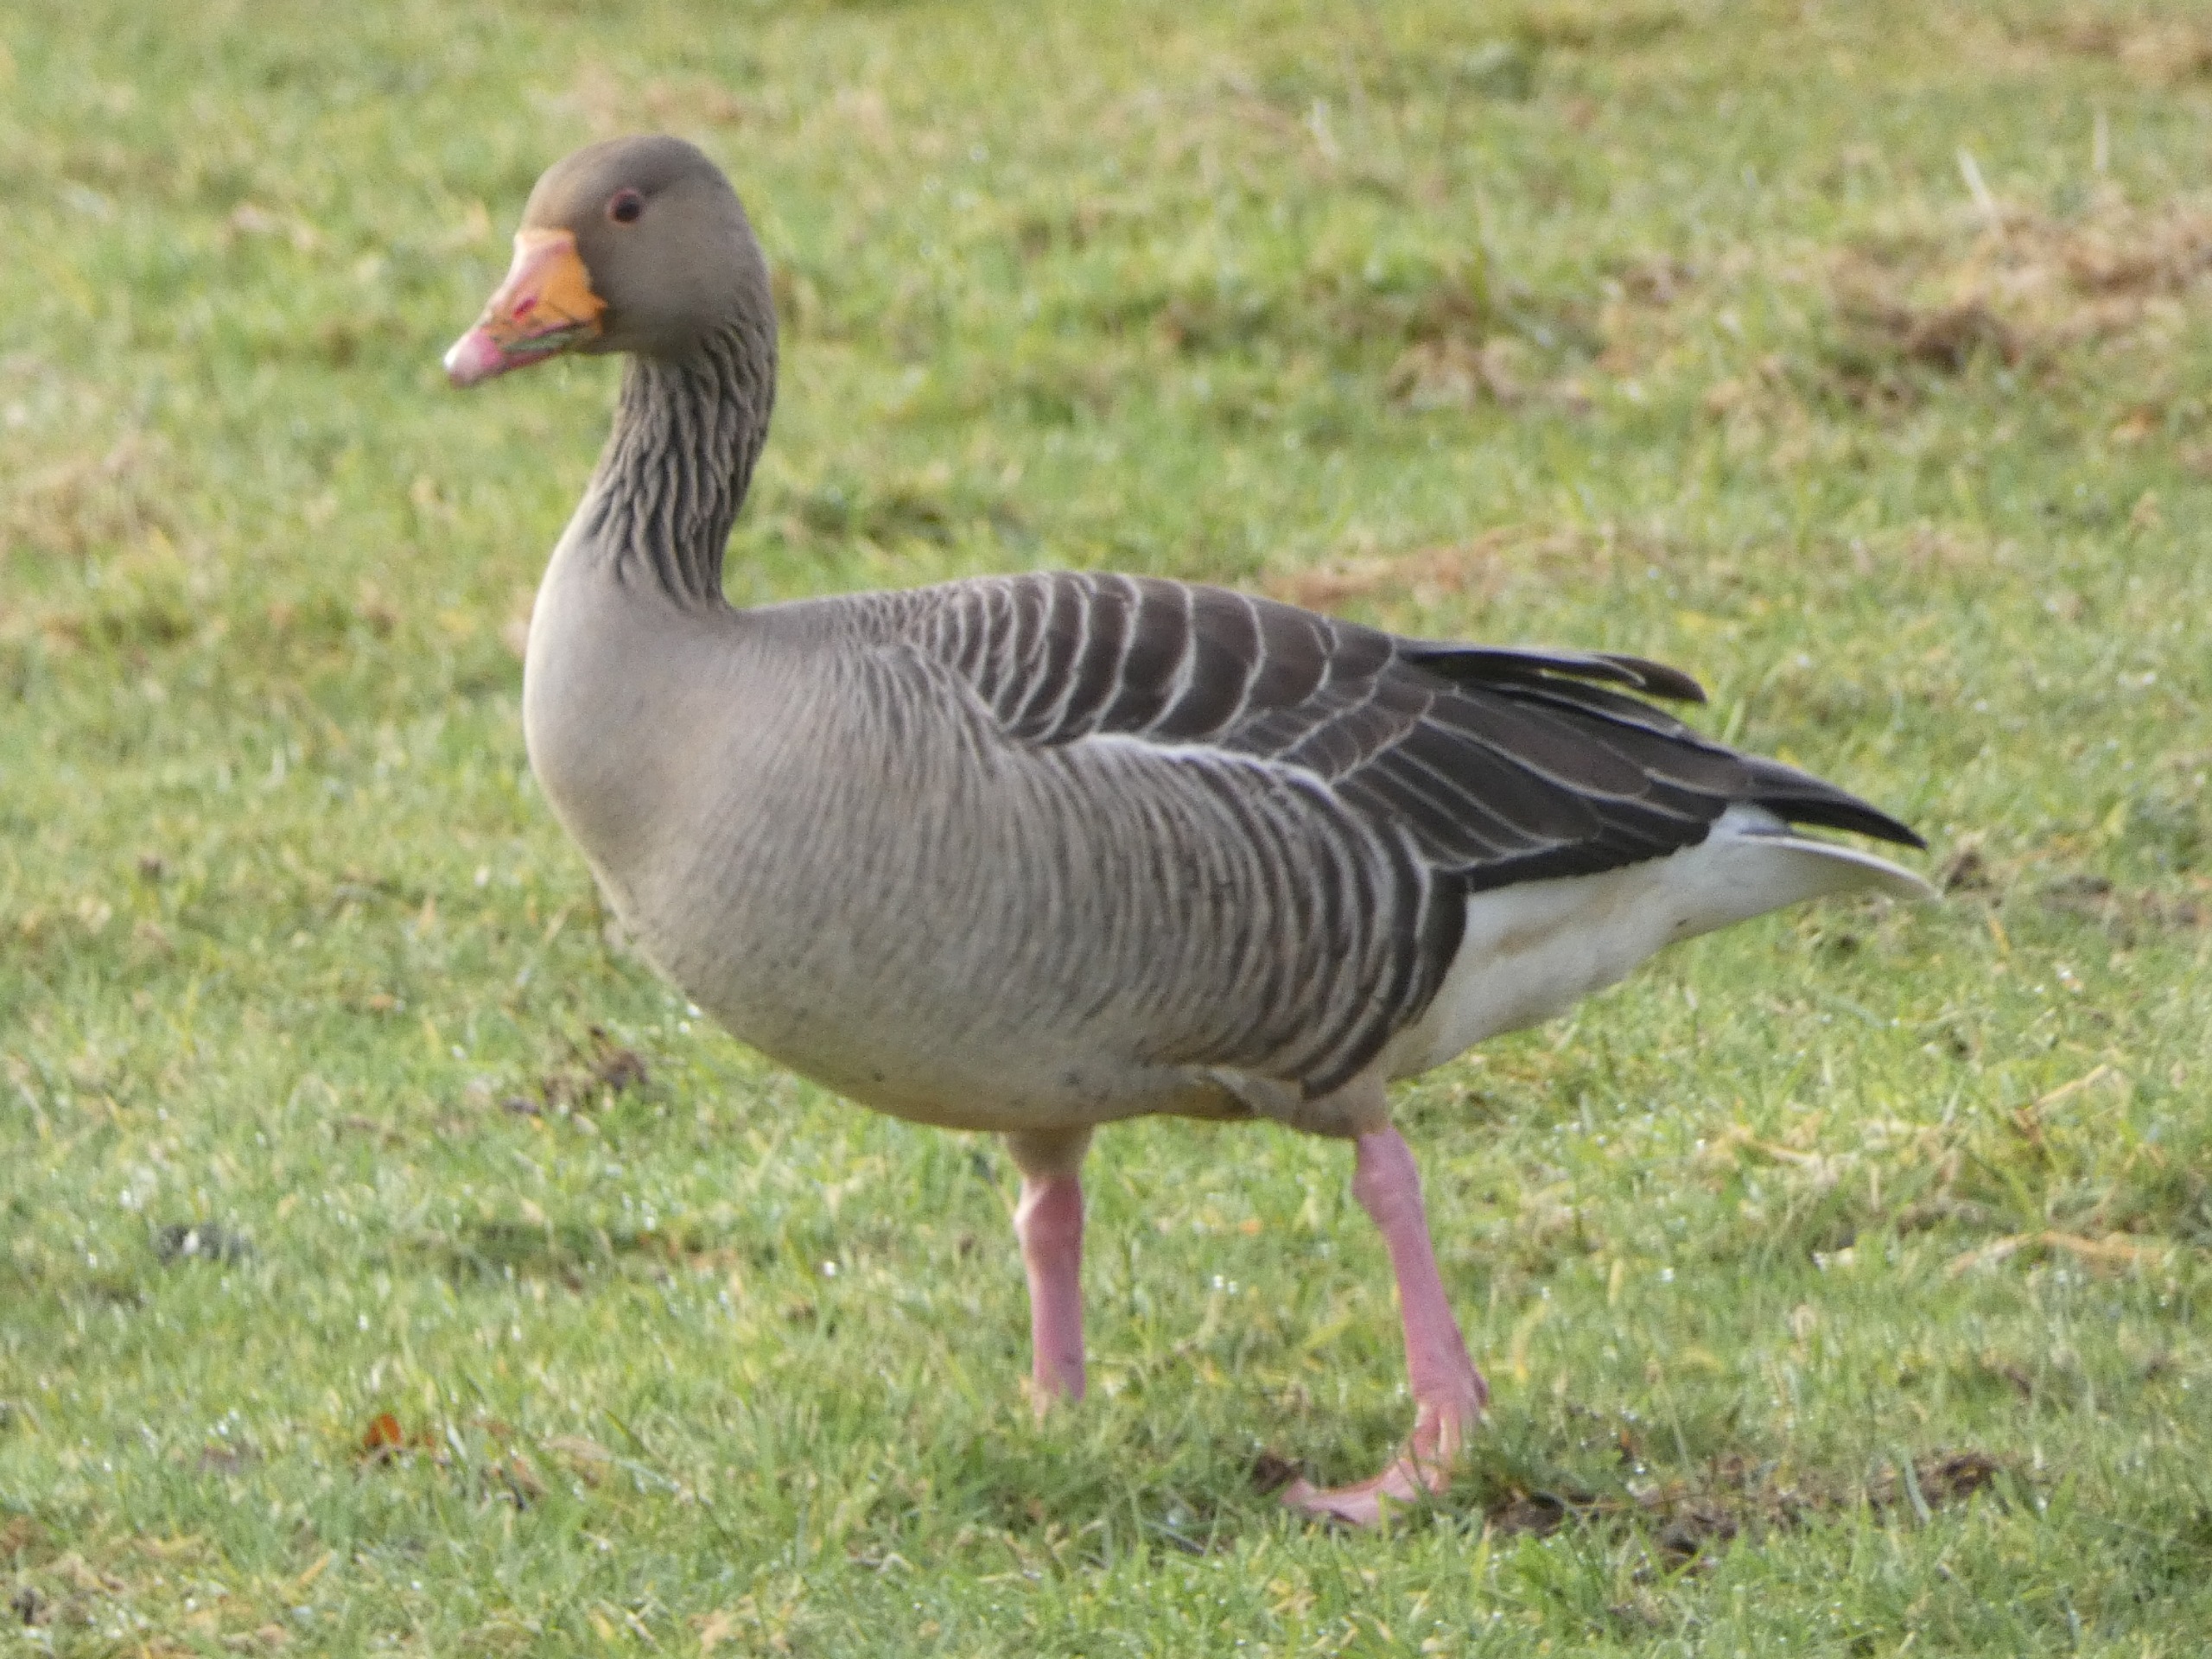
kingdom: Animalia
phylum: Chordata
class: Aves
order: Anseriformes
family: Anatidae
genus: Anser
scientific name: Anser anser
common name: Grågås
